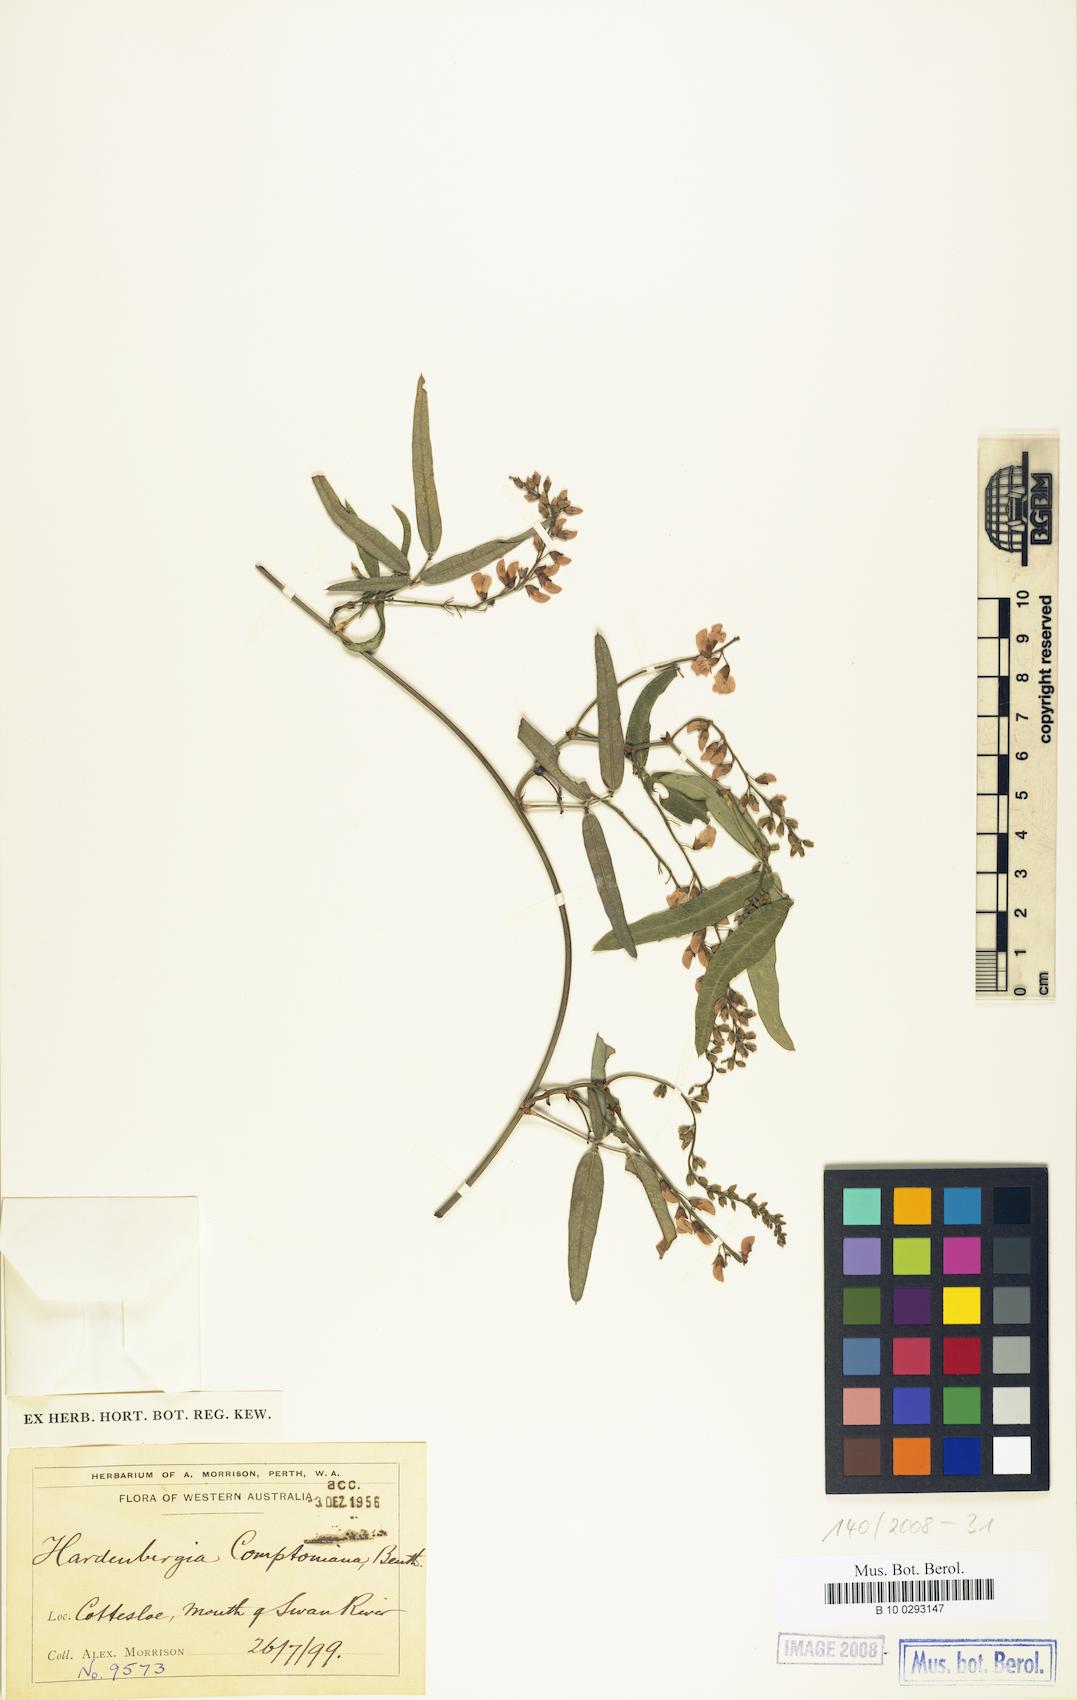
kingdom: Plantae
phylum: Tracheophyta
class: Magnoliopsida
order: Fabales
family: Fabaceae
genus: Hardenbergia
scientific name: Hardenbergia comptoniana
